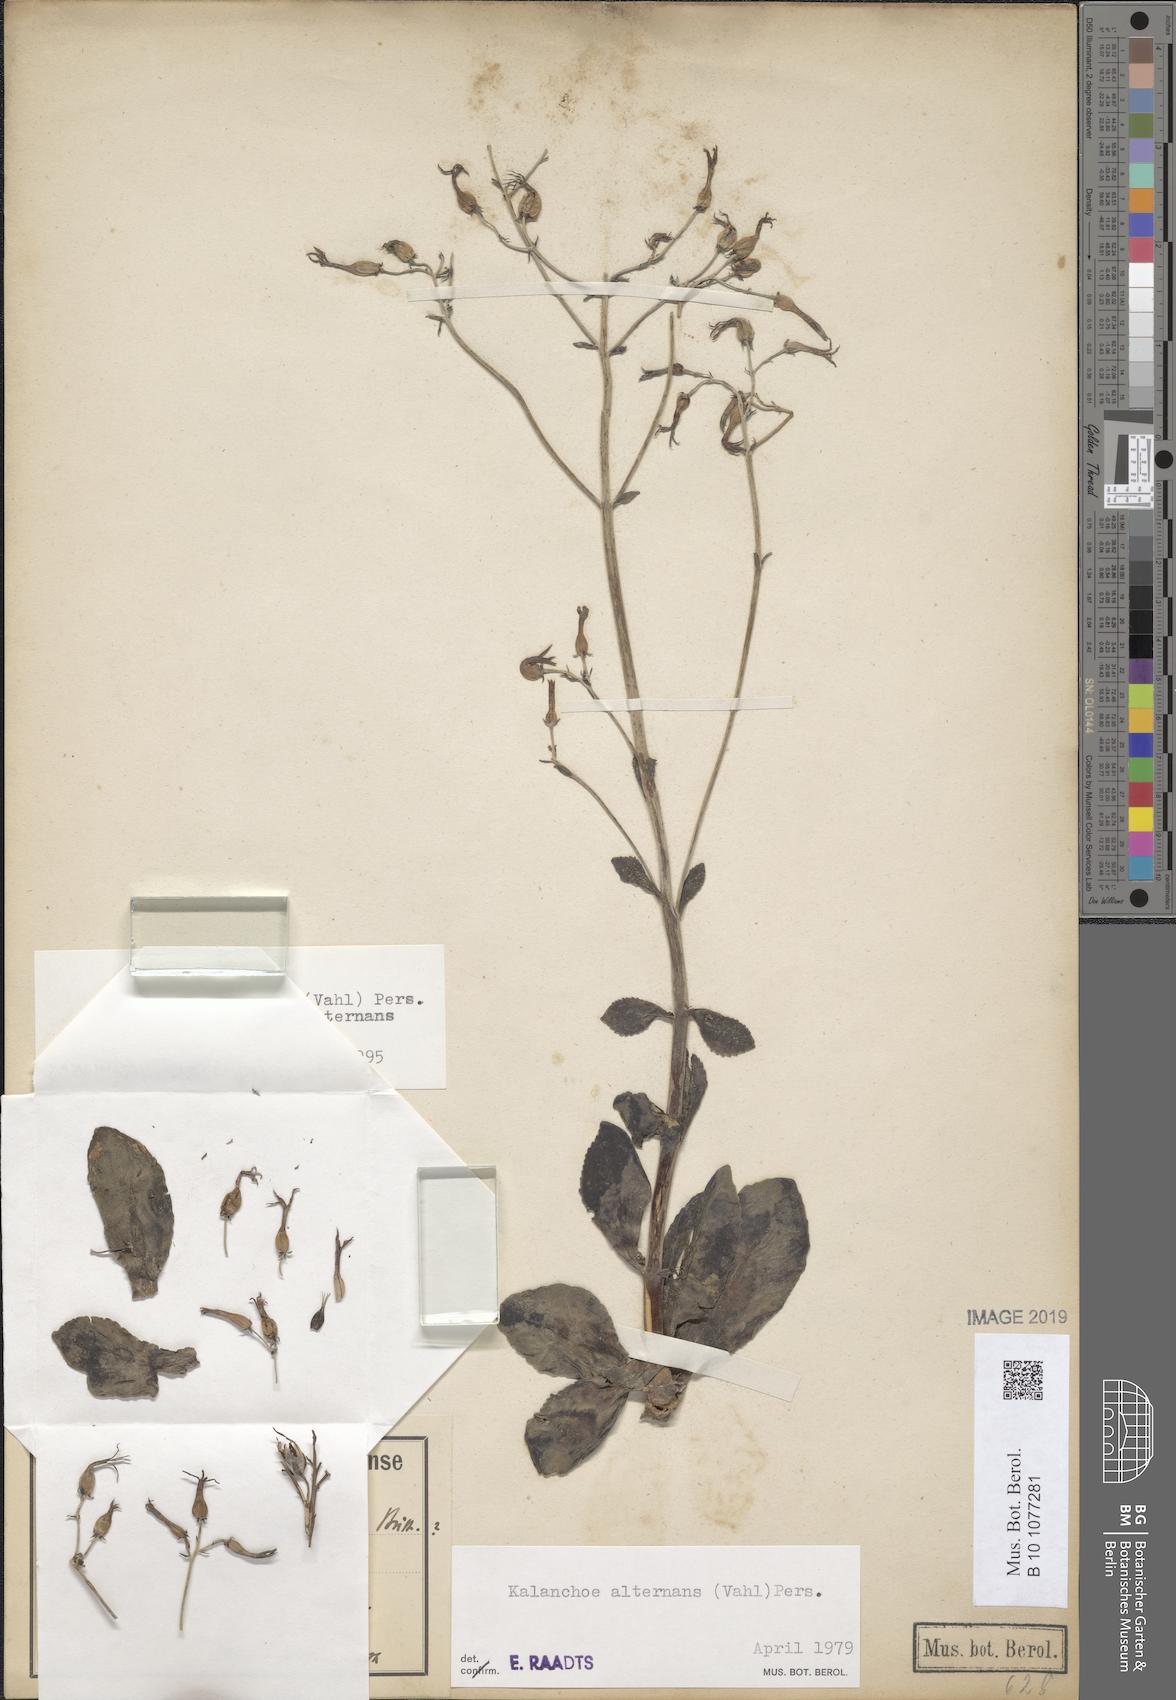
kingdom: Plantae
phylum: Tracheophyta
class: Magnoliopsida
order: Saxifragales
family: Crassulaceae
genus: Kalanchoe
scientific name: Kalanchoe alternans
